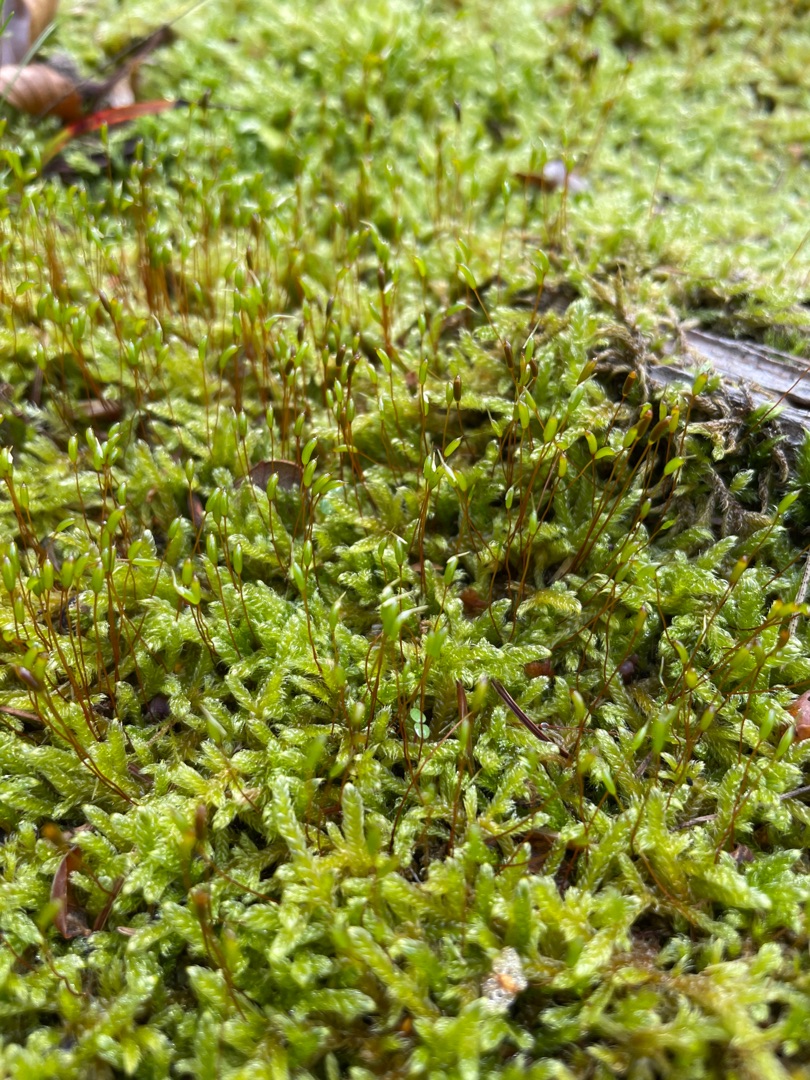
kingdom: Plantae
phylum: Bryophyta
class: Bryopsida
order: Hypnales
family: Hypnaceae
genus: Hypnum
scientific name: Hypnum cupressiforme
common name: Almindelig cypresmos
